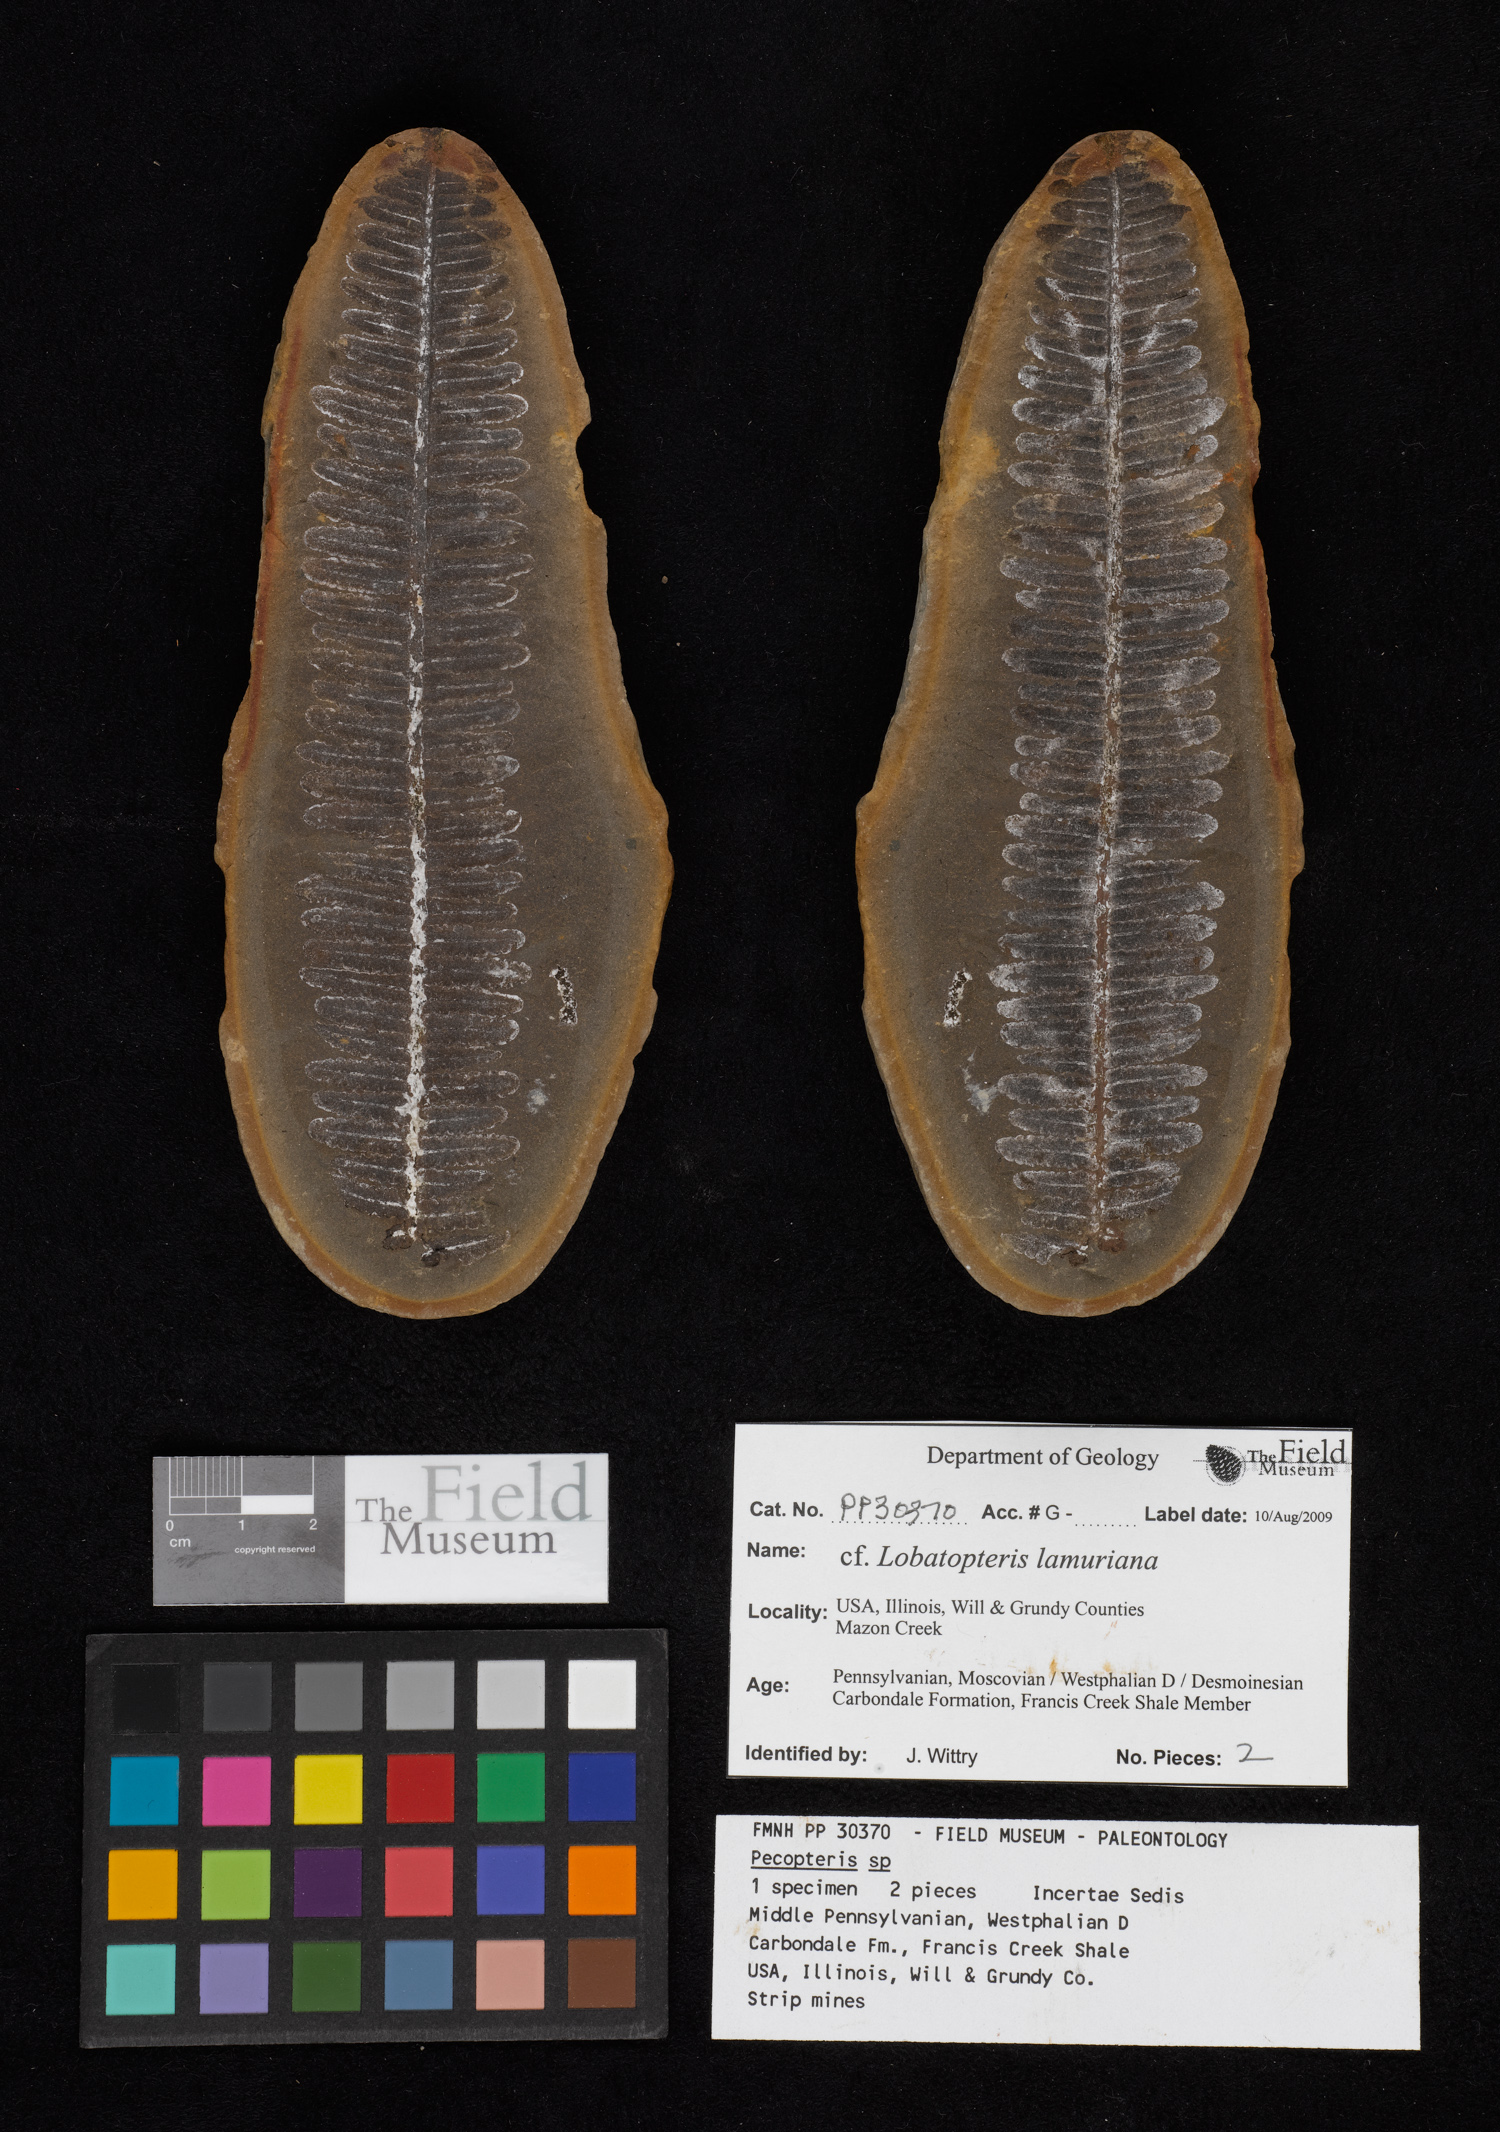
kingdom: Plantae
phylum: Tracheophyta
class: Polypodiopsida
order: Marattiales
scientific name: Marattiales
